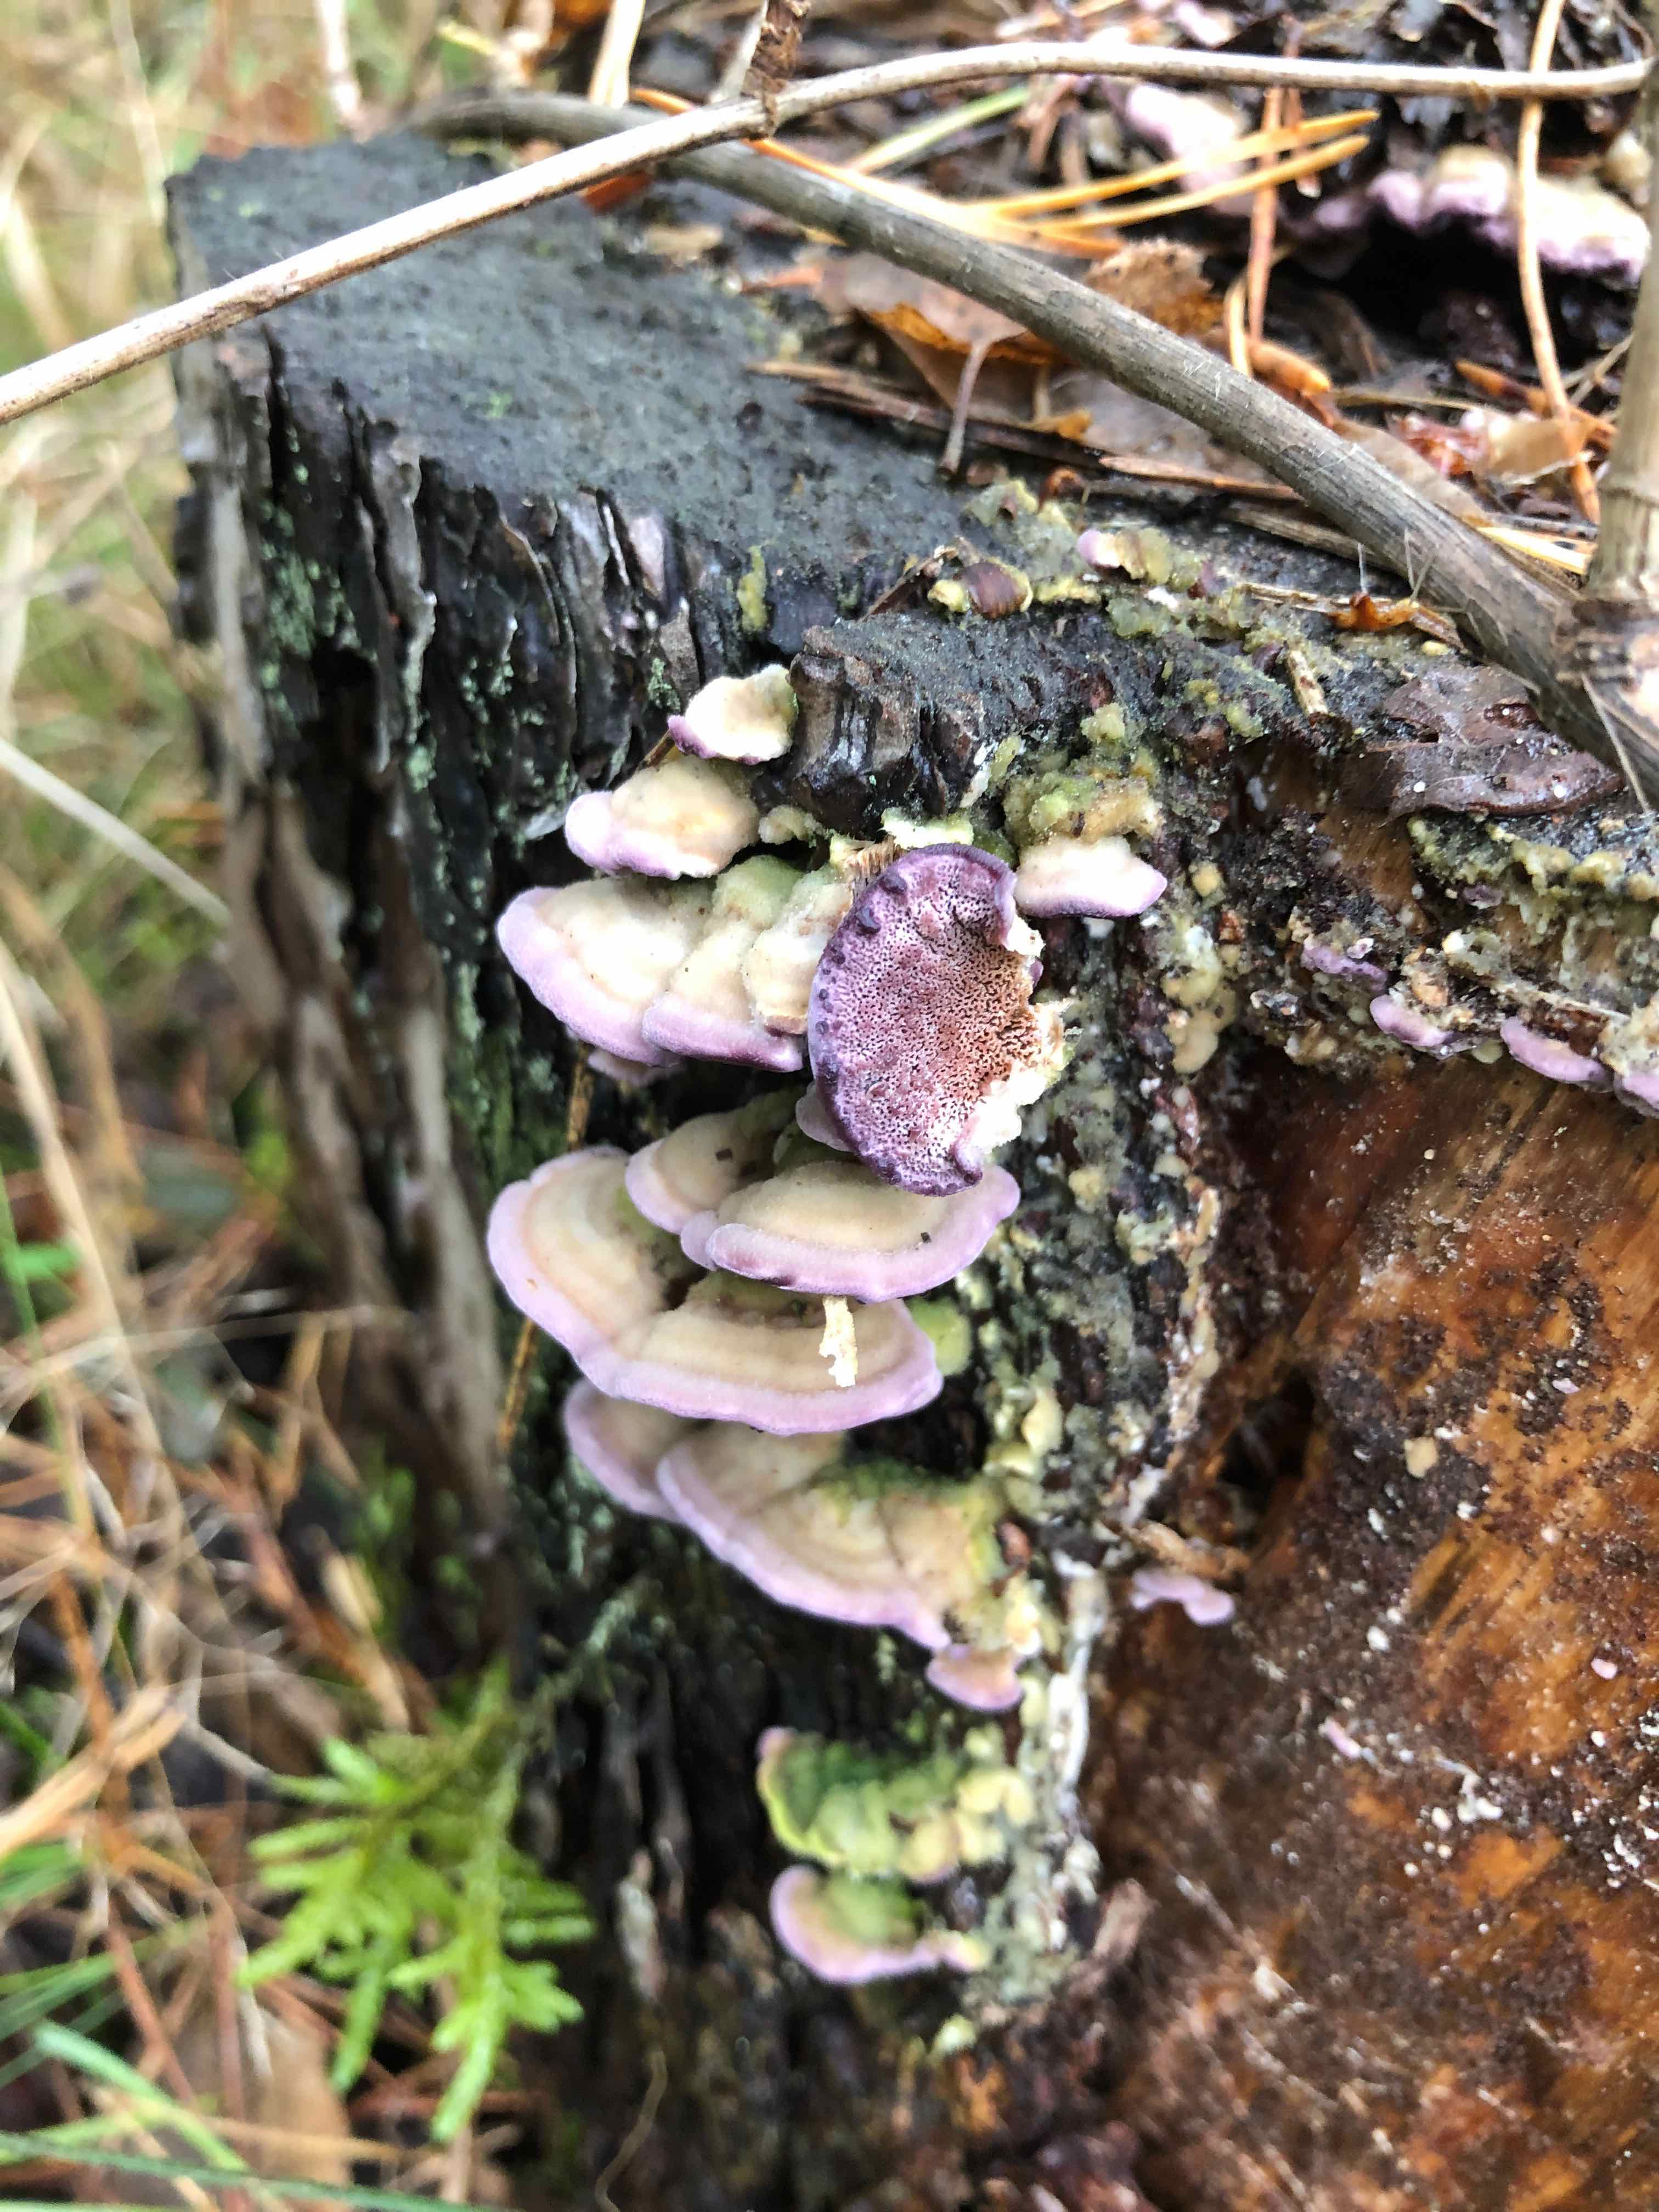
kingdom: Fungi
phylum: Basidiomycota
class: Agaricomycetes
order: Hymenochaetales
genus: Trichaptum
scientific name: Trichaptum abietinum
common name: almindelig violporesvamp
